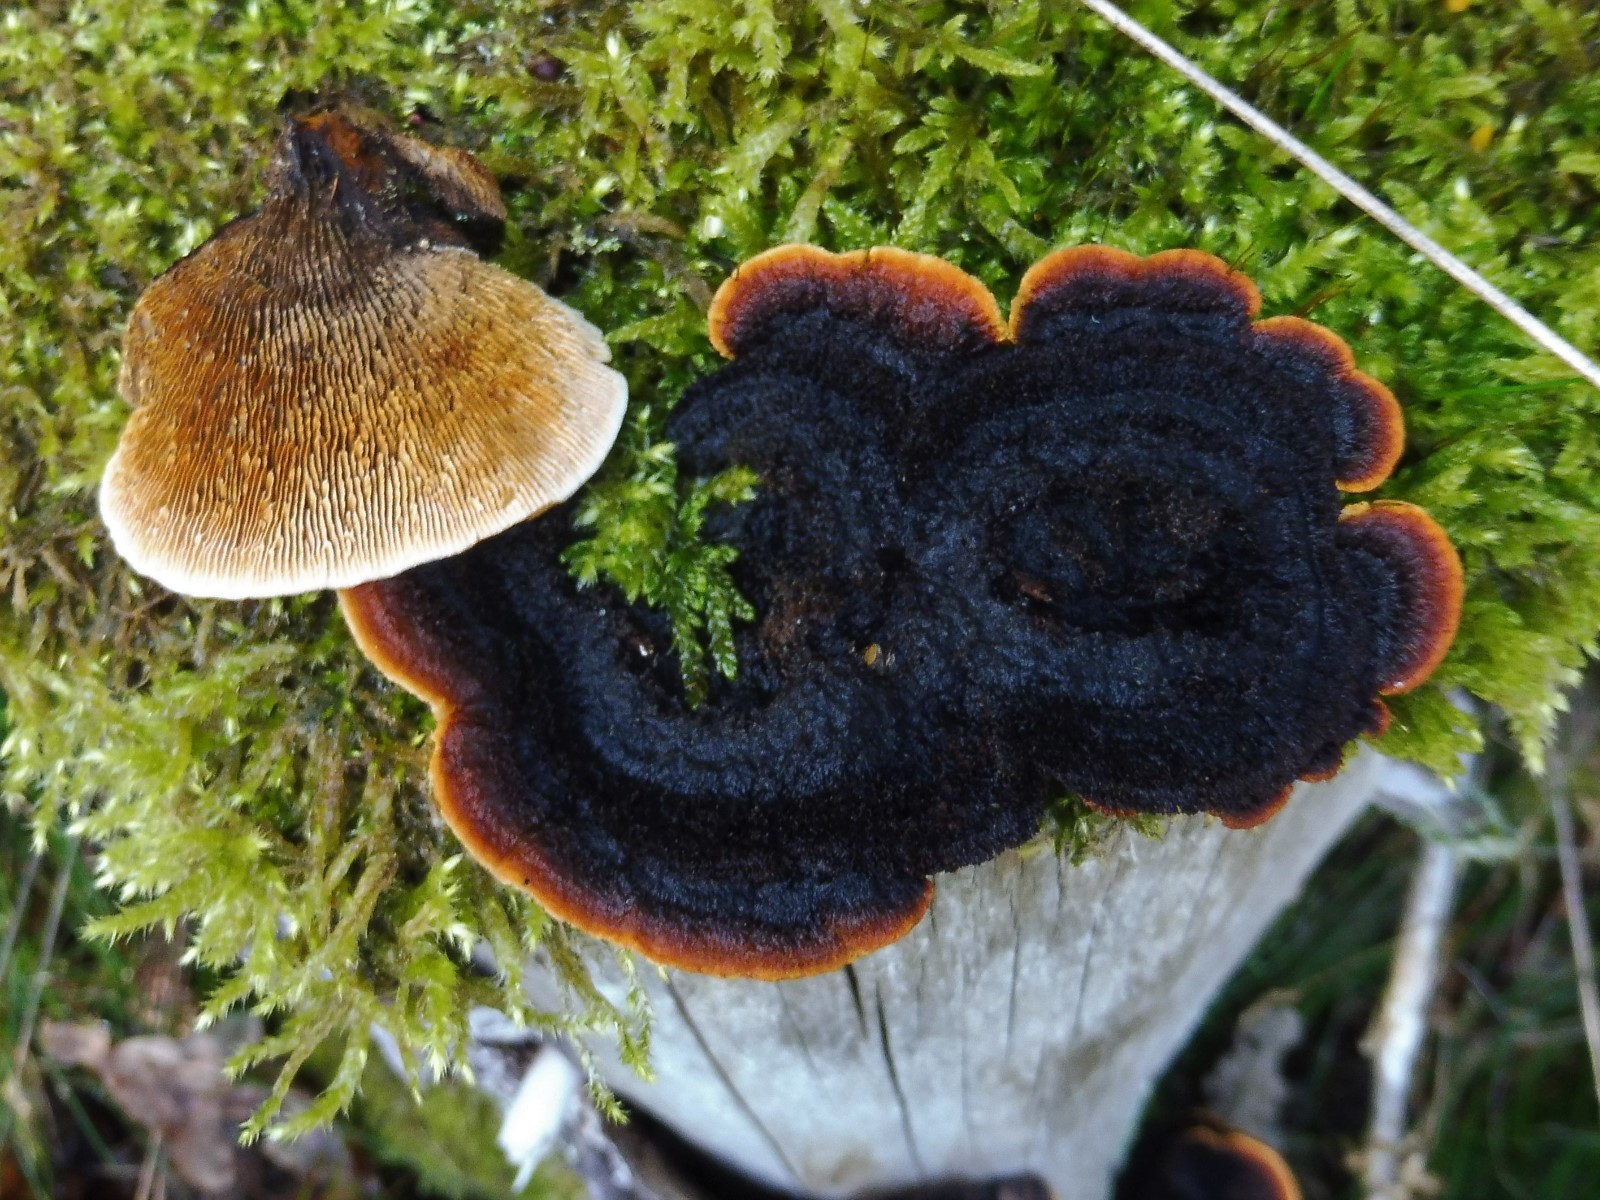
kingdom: Fungi
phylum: Basidiomycota
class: Agaricomycetes
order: Gloeophyllales
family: Gloeophyllaceae
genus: Gloeophyllum
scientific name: Gloeophyllum sepiarium
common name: fyrre-korkhat
